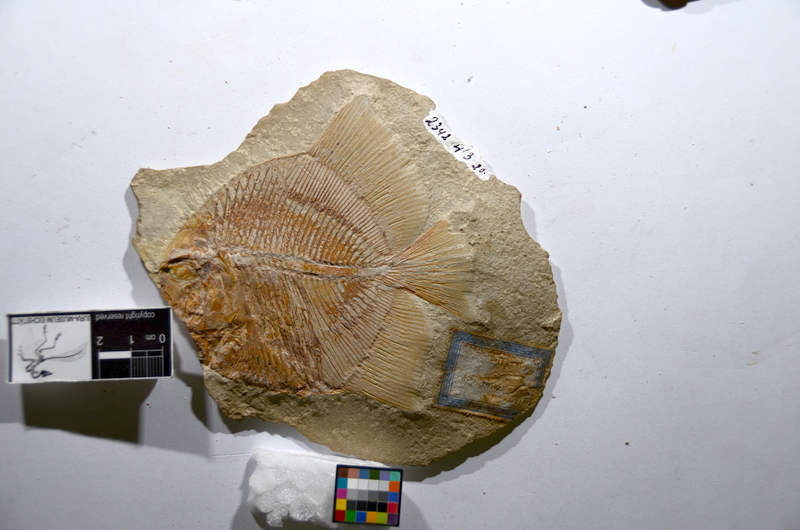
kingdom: Animalia
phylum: Chordata
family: Pycnodontidae
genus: Turbomesodon
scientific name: Turbomesodon relegans
